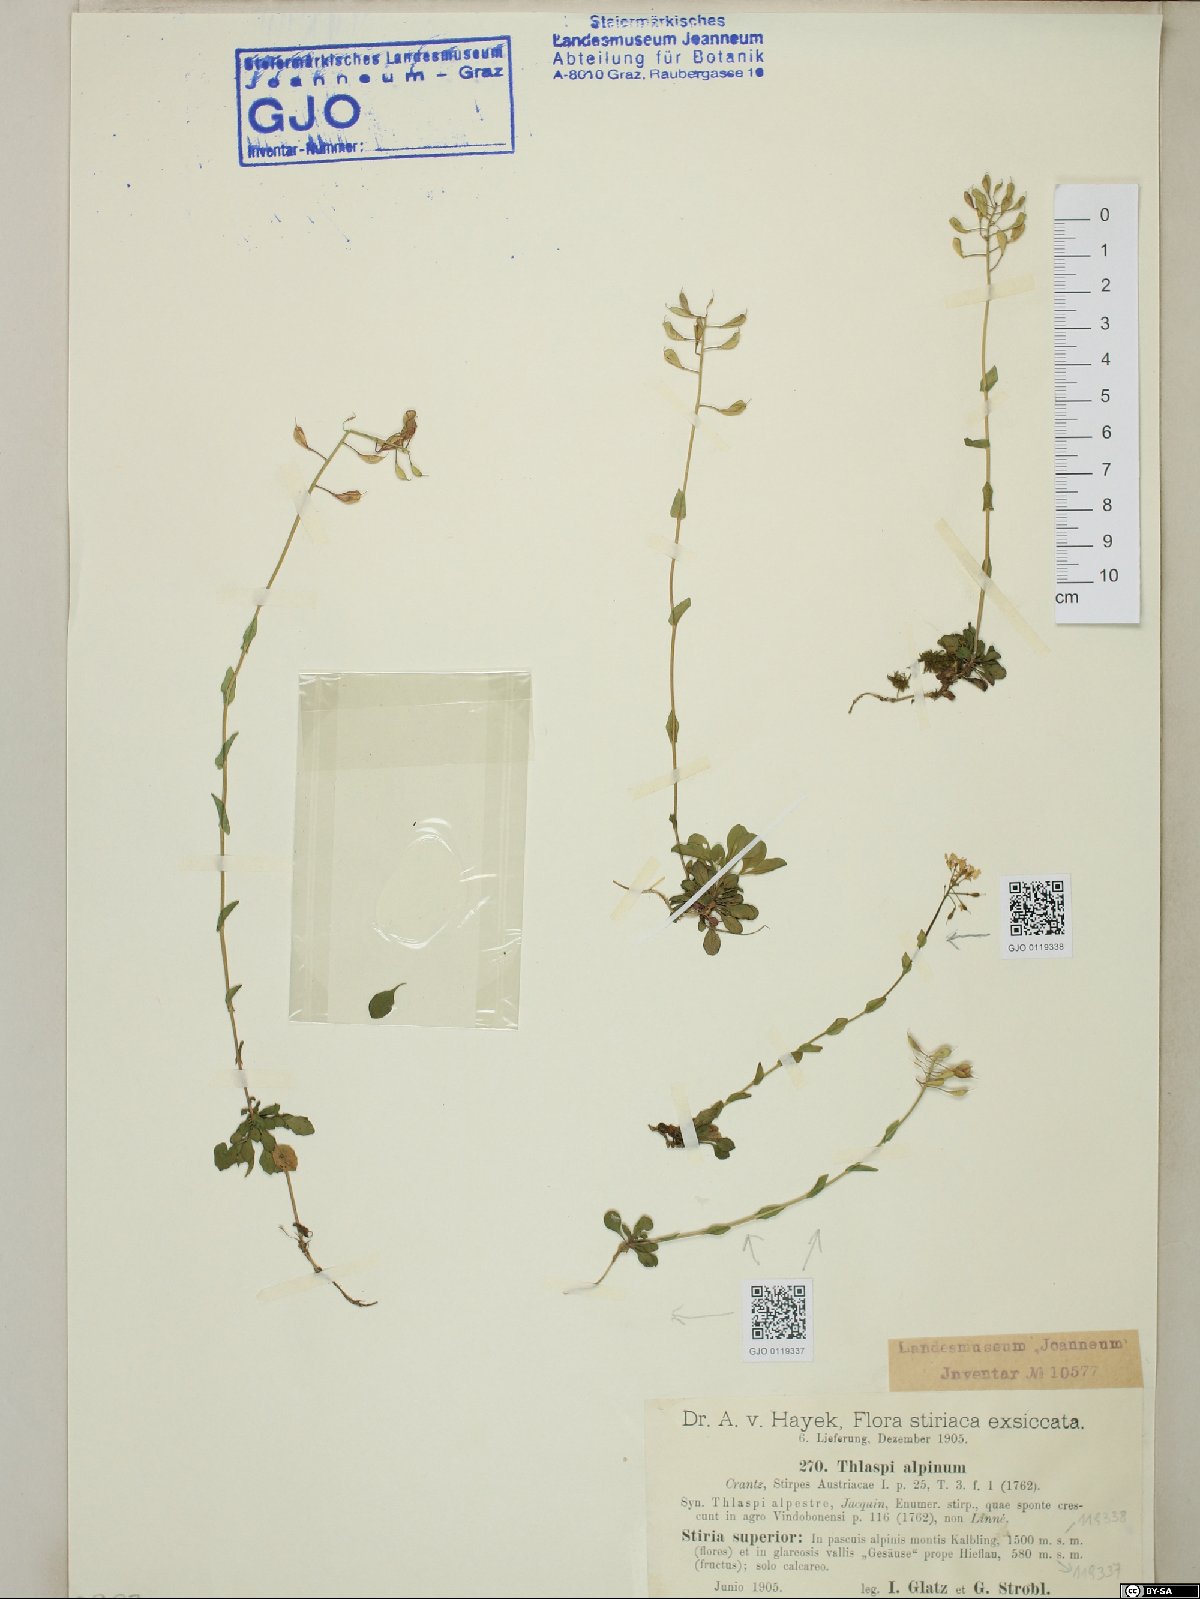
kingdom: Plantae
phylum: Tracheophyta
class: Magnoliopsida
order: Brassicales
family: Brassicaceae
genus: Noccaea
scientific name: Noccaea alpestris
